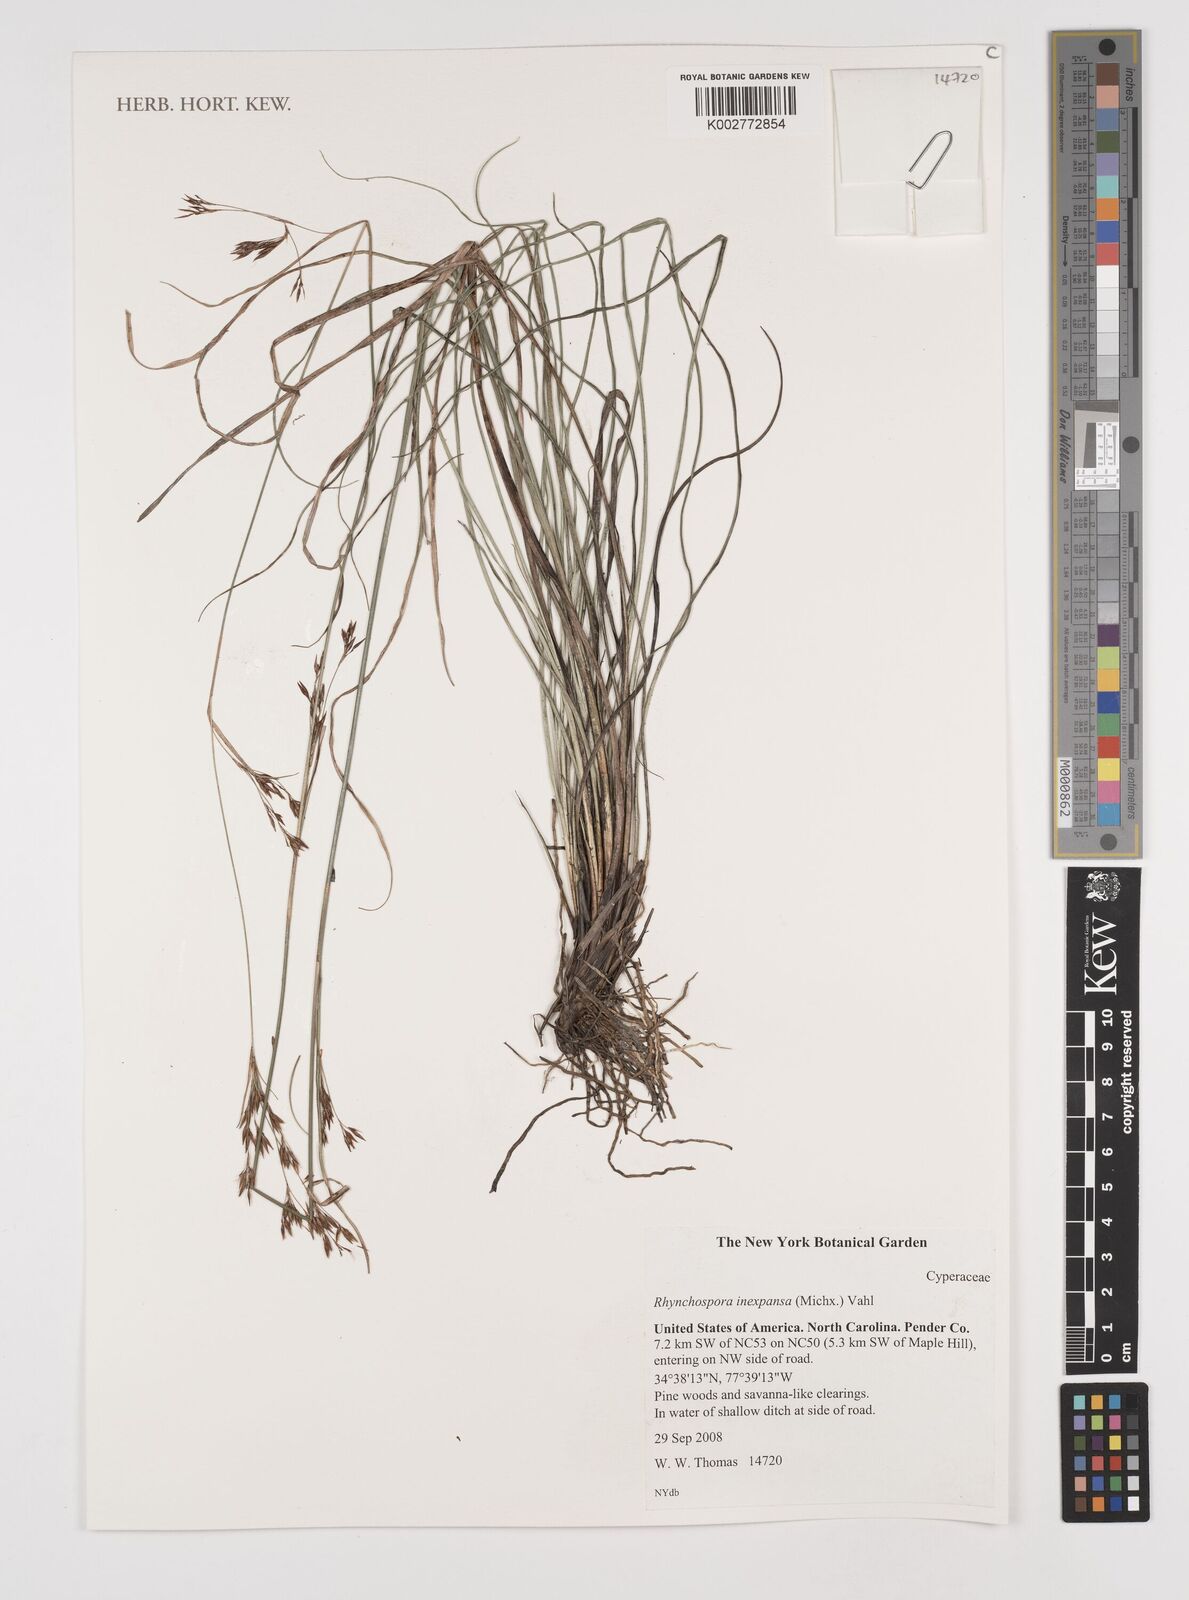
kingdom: Plantae
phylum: Tracheophyta
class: Liliopsida
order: Poales
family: Cyperaceae
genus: Rhynchospora
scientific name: Rhynchospora inexpansa
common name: Nodding beaksedge
